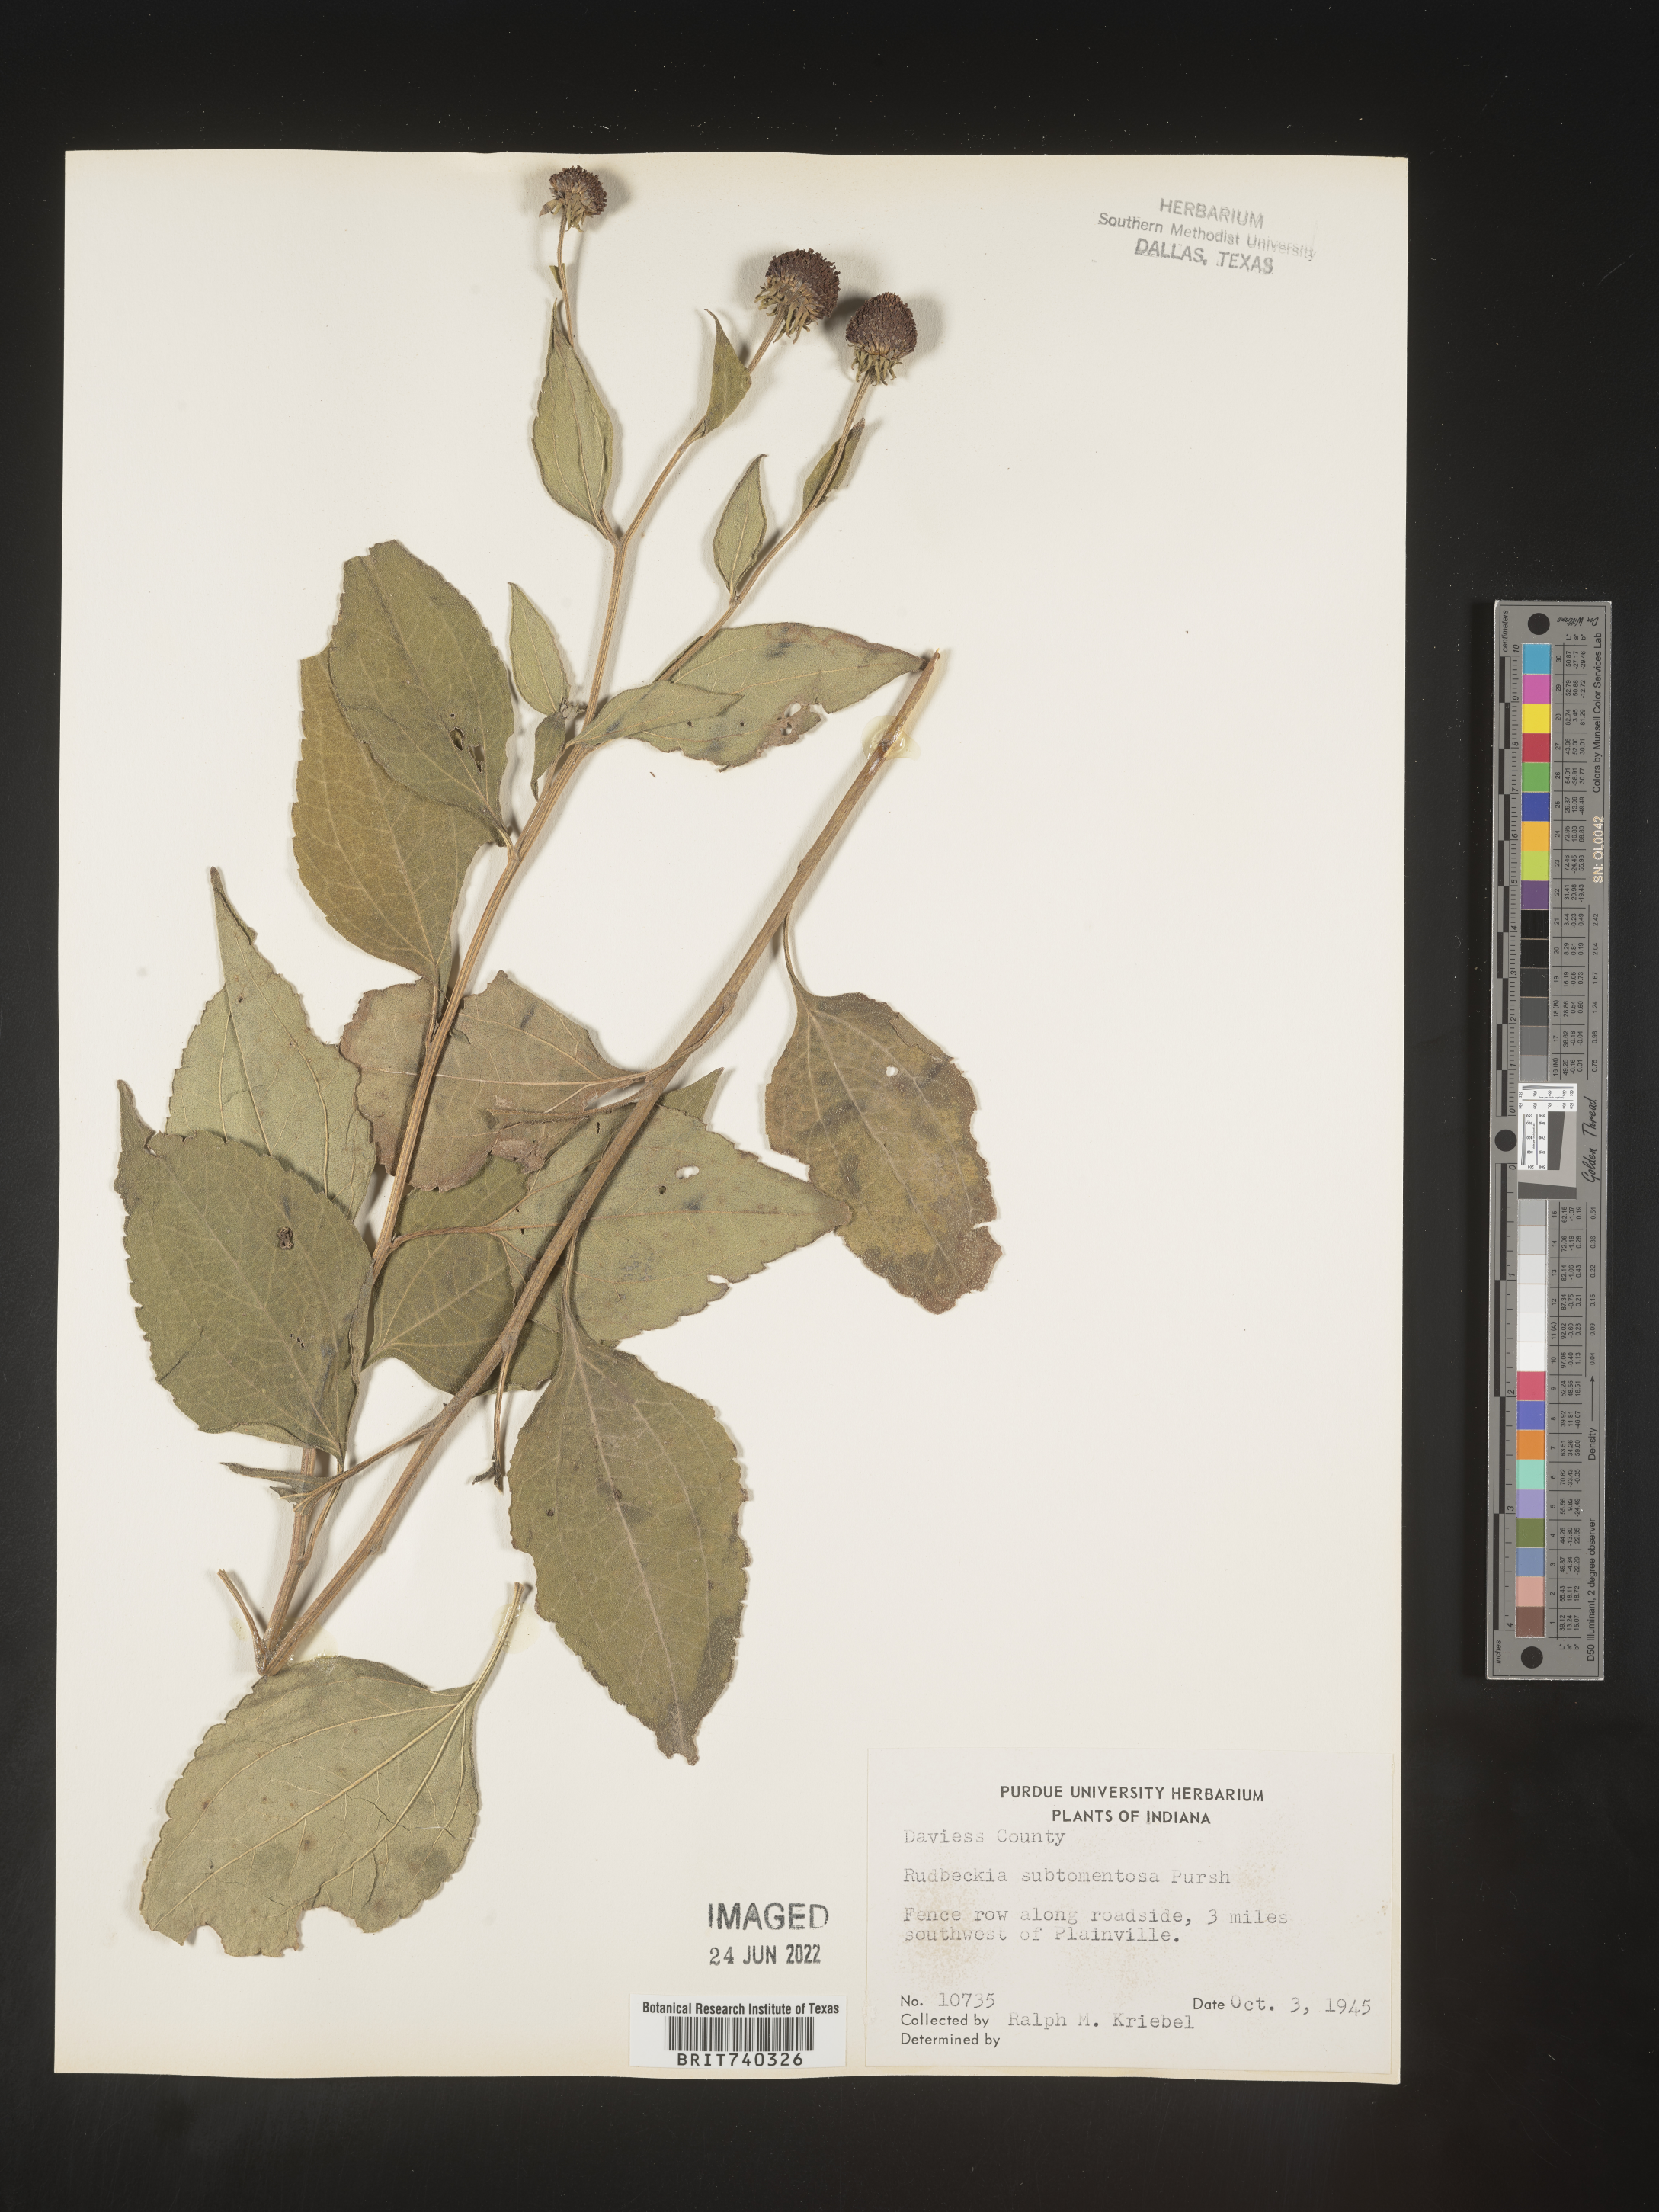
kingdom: Plantae
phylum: Tracheophyta
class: Magnoliopsida
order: Asterales
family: Asteraceae
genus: Rudbeckia
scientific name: Rudbeckia subtomentosa
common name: Sweet coneflower
